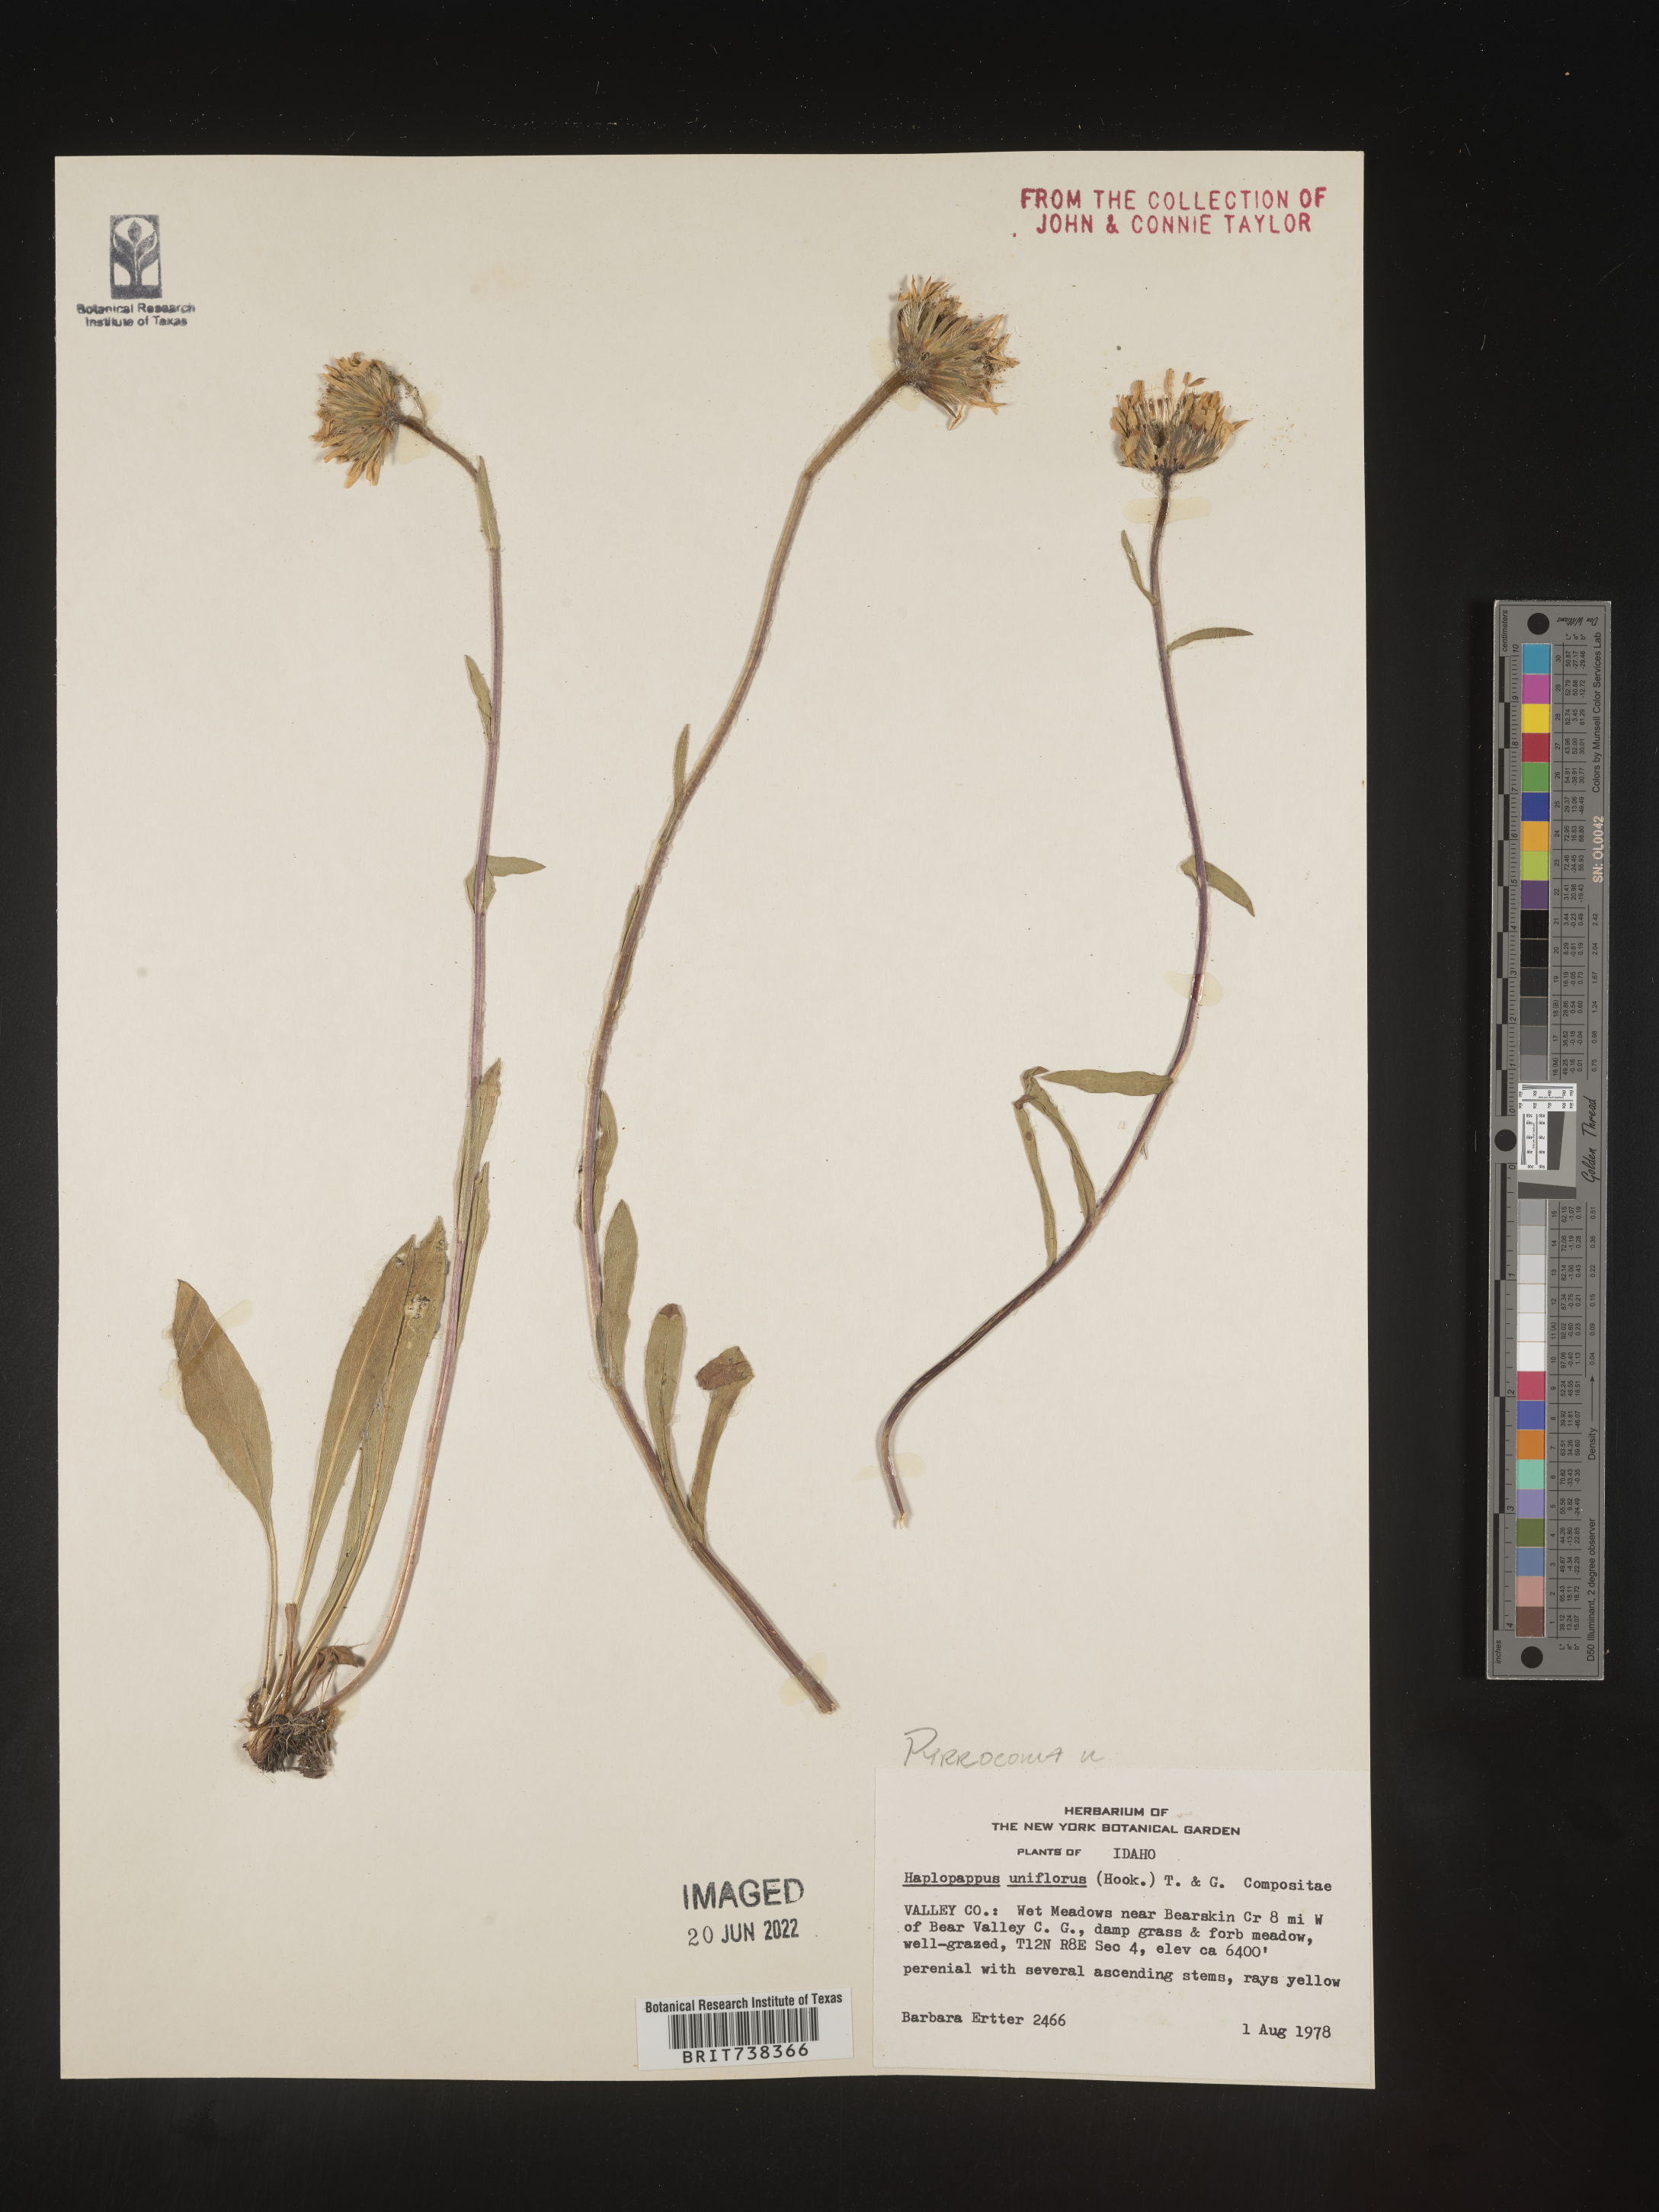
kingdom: Plantae
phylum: Tracheophyta
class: Magnoliopsida
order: Asterales
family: Asteraceae
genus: Pyrrocoma
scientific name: Pyrrocoma uniflora
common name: Plantain goldenweed
